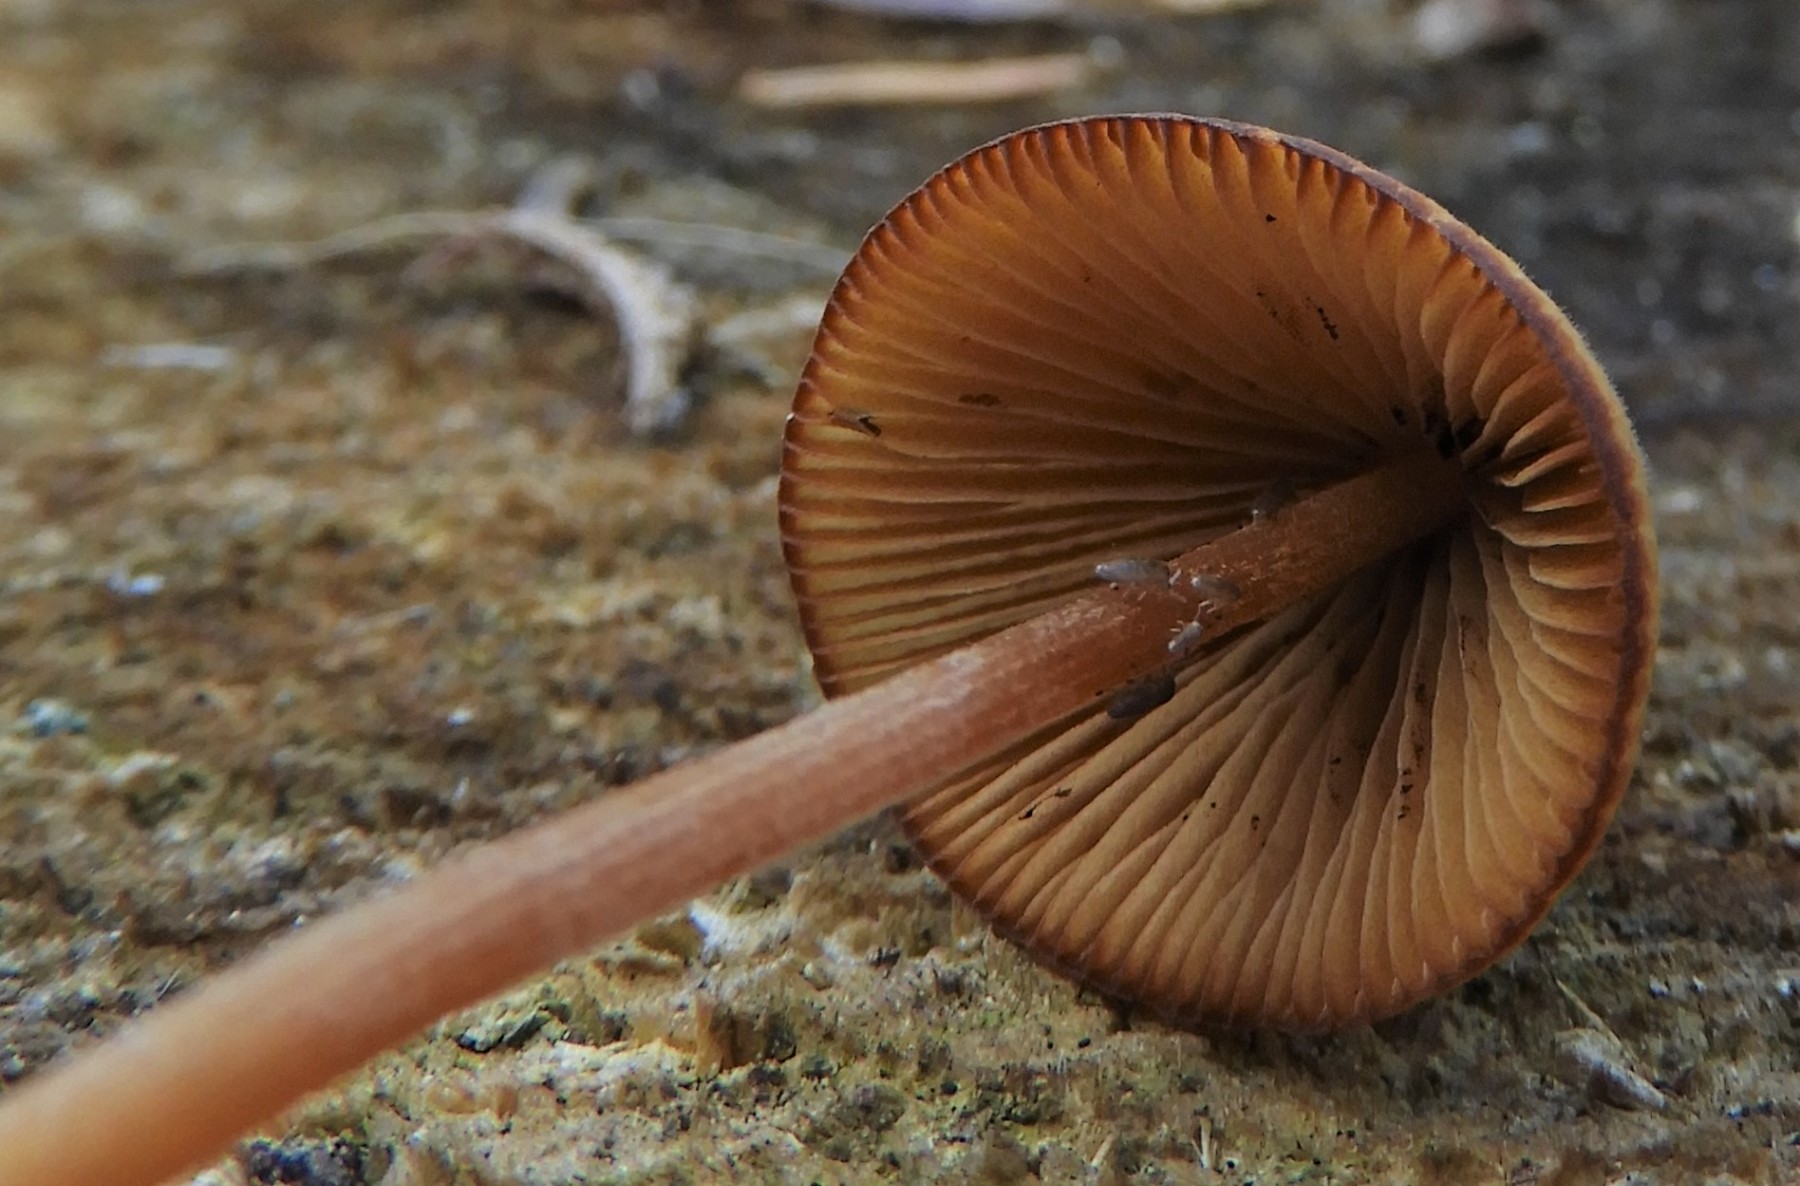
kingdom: Fungi
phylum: Basidiomycota
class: Agaricomycetes
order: Agaricales
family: Bolbitiaceae
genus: Conocybe
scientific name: Conocybe
